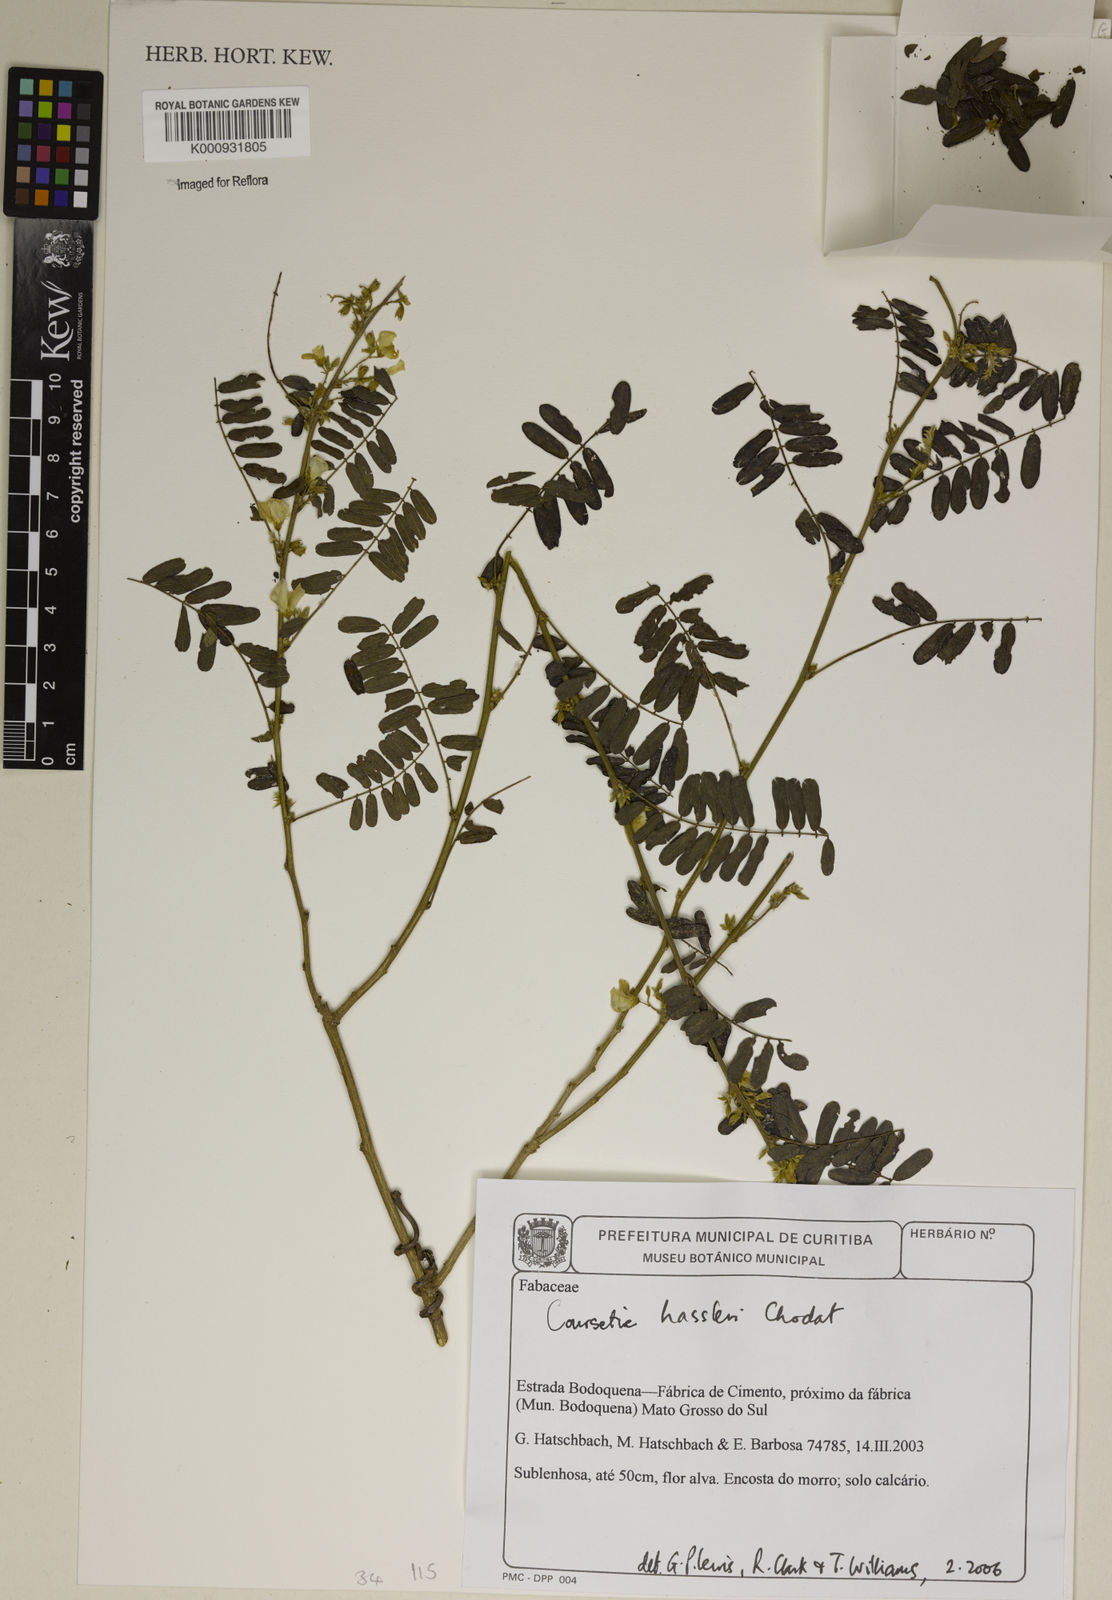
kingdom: Plantae
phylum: Tracheophyta
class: Magnoliopsida
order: Fabales
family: Fabaceae
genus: Coursetia
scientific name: Coursetia hassleri
